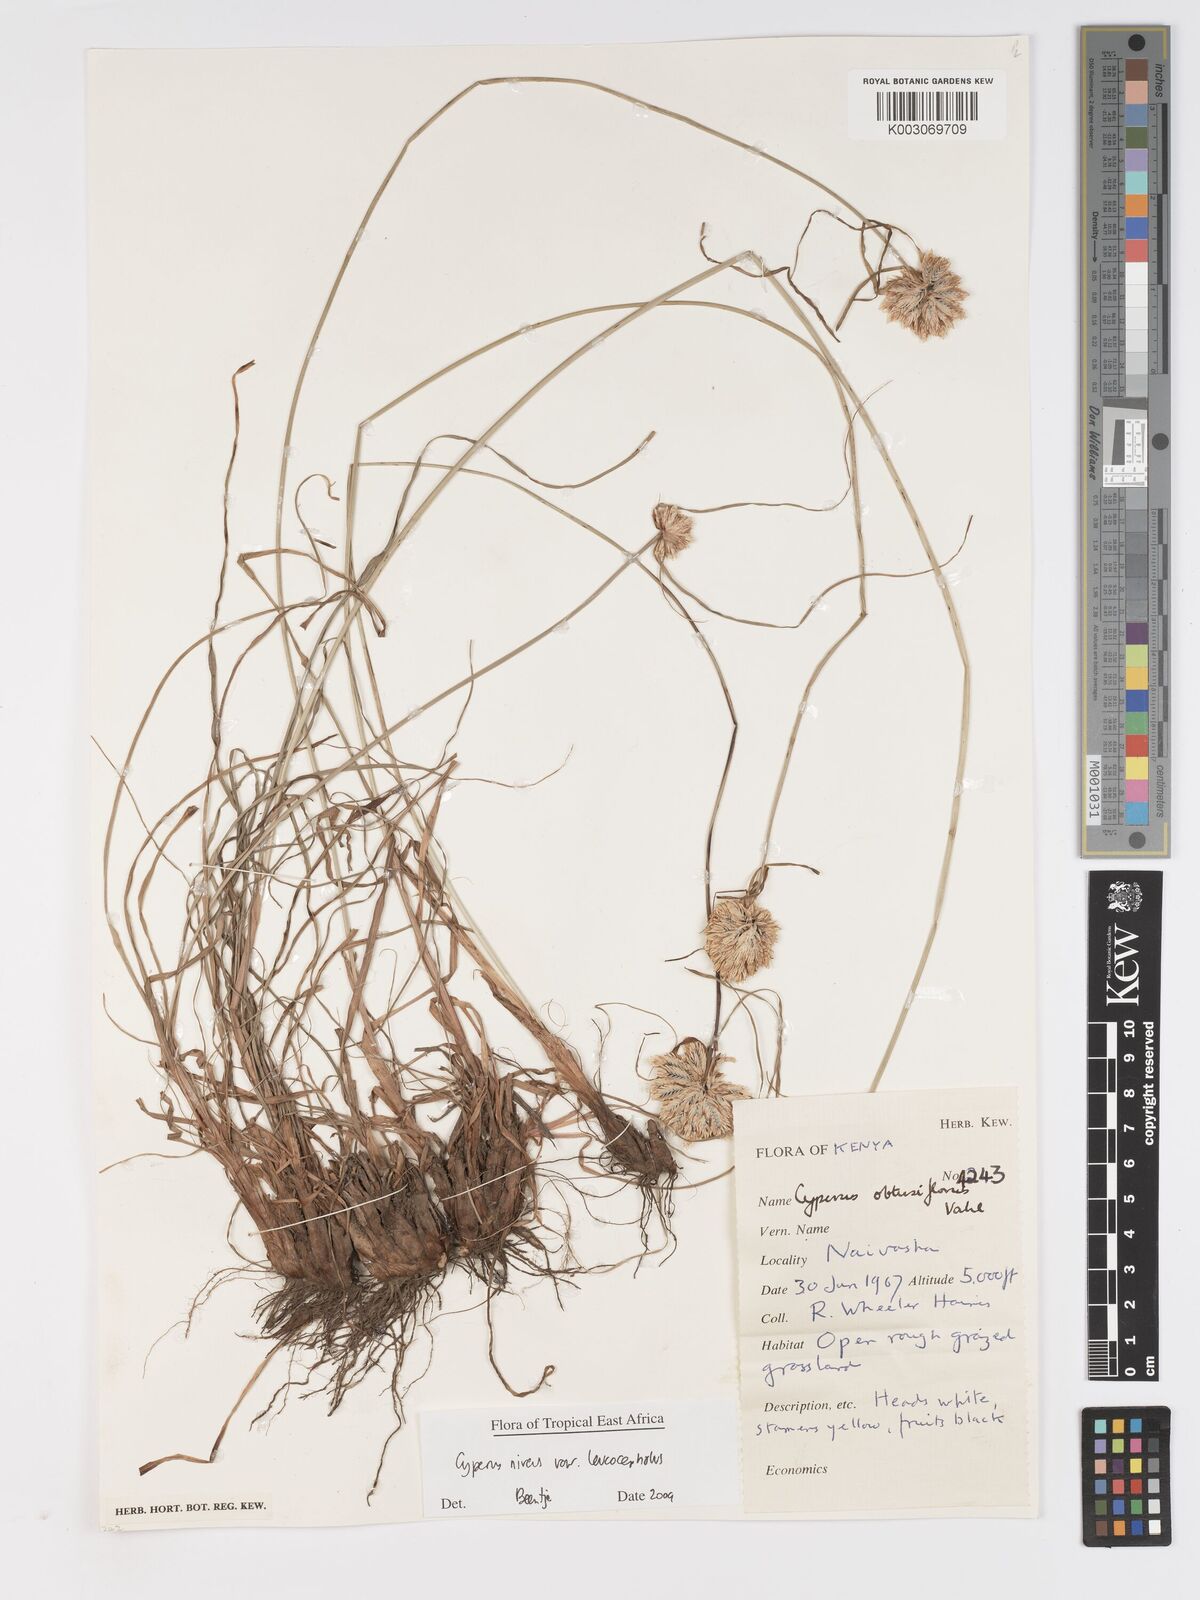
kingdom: Plantae
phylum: Tracheophyta
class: Liliopsida
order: Poales
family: Cyperaceae
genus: Cyperus
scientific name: Cyperus niveus
